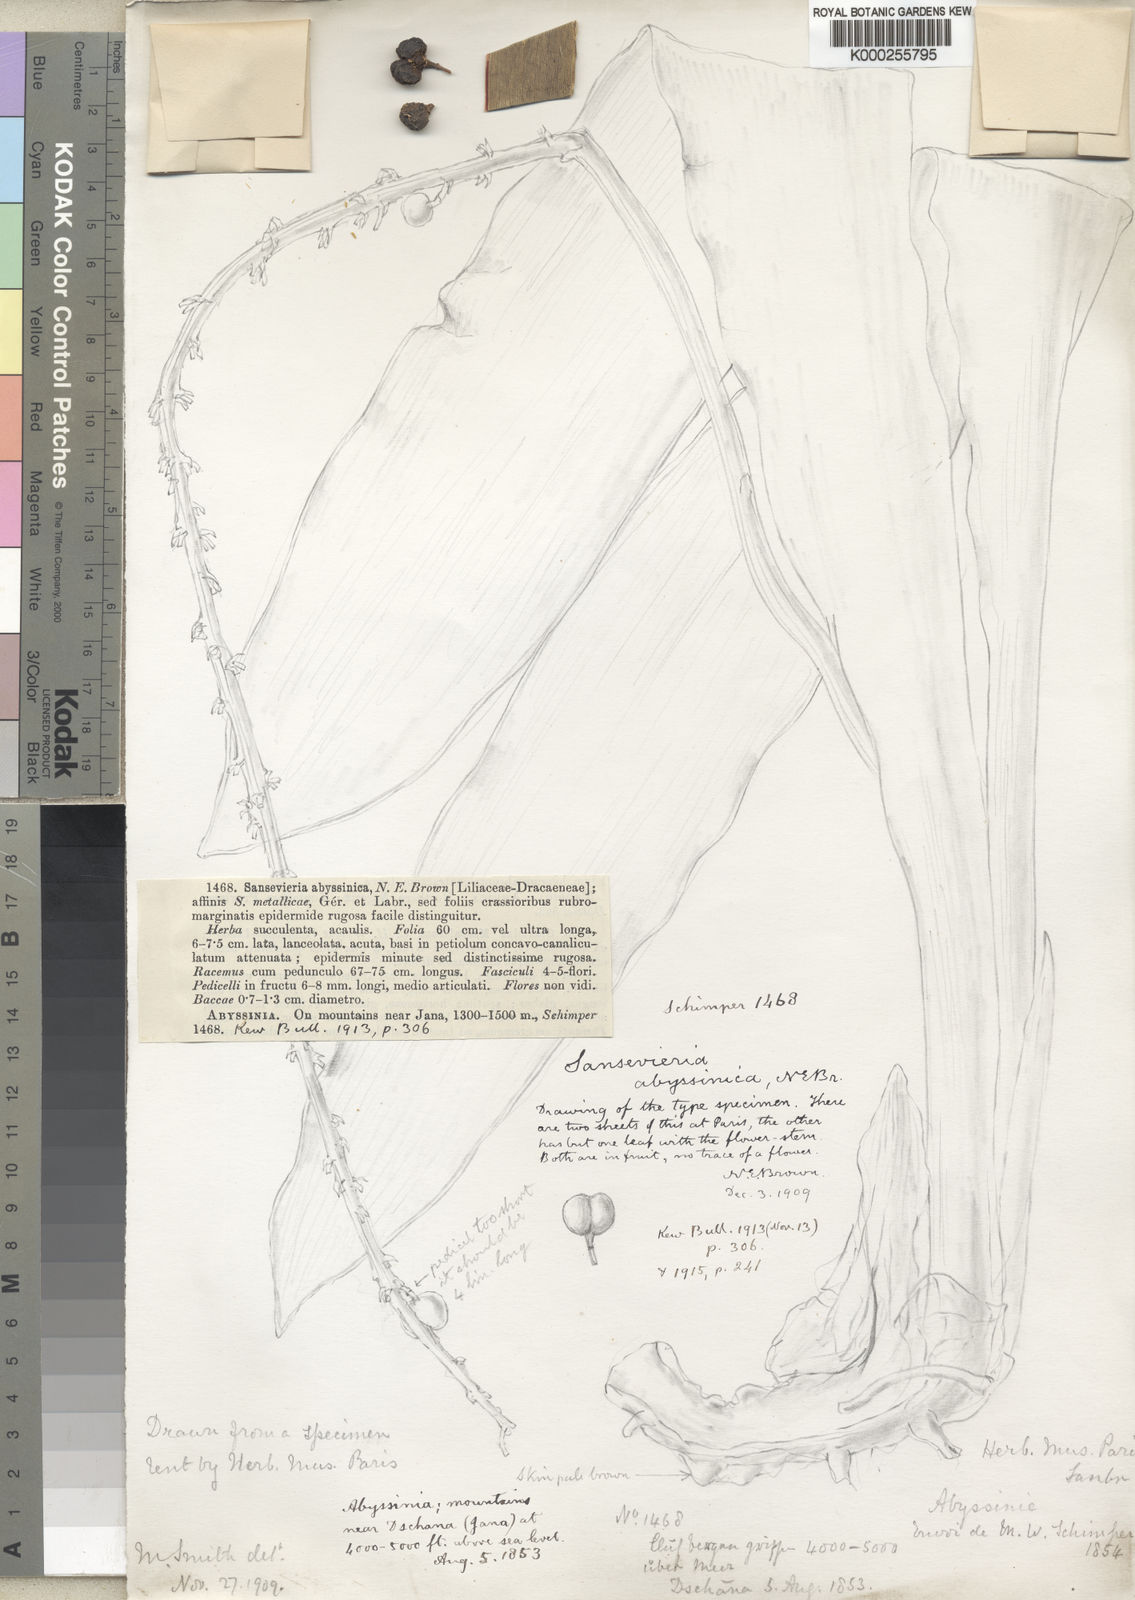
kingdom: Plantae
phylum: Tracheophyta
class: Liliopsida
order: Asparagales
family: Asparagaceae
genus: Dracaena
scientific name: Dracaena forskaliana
